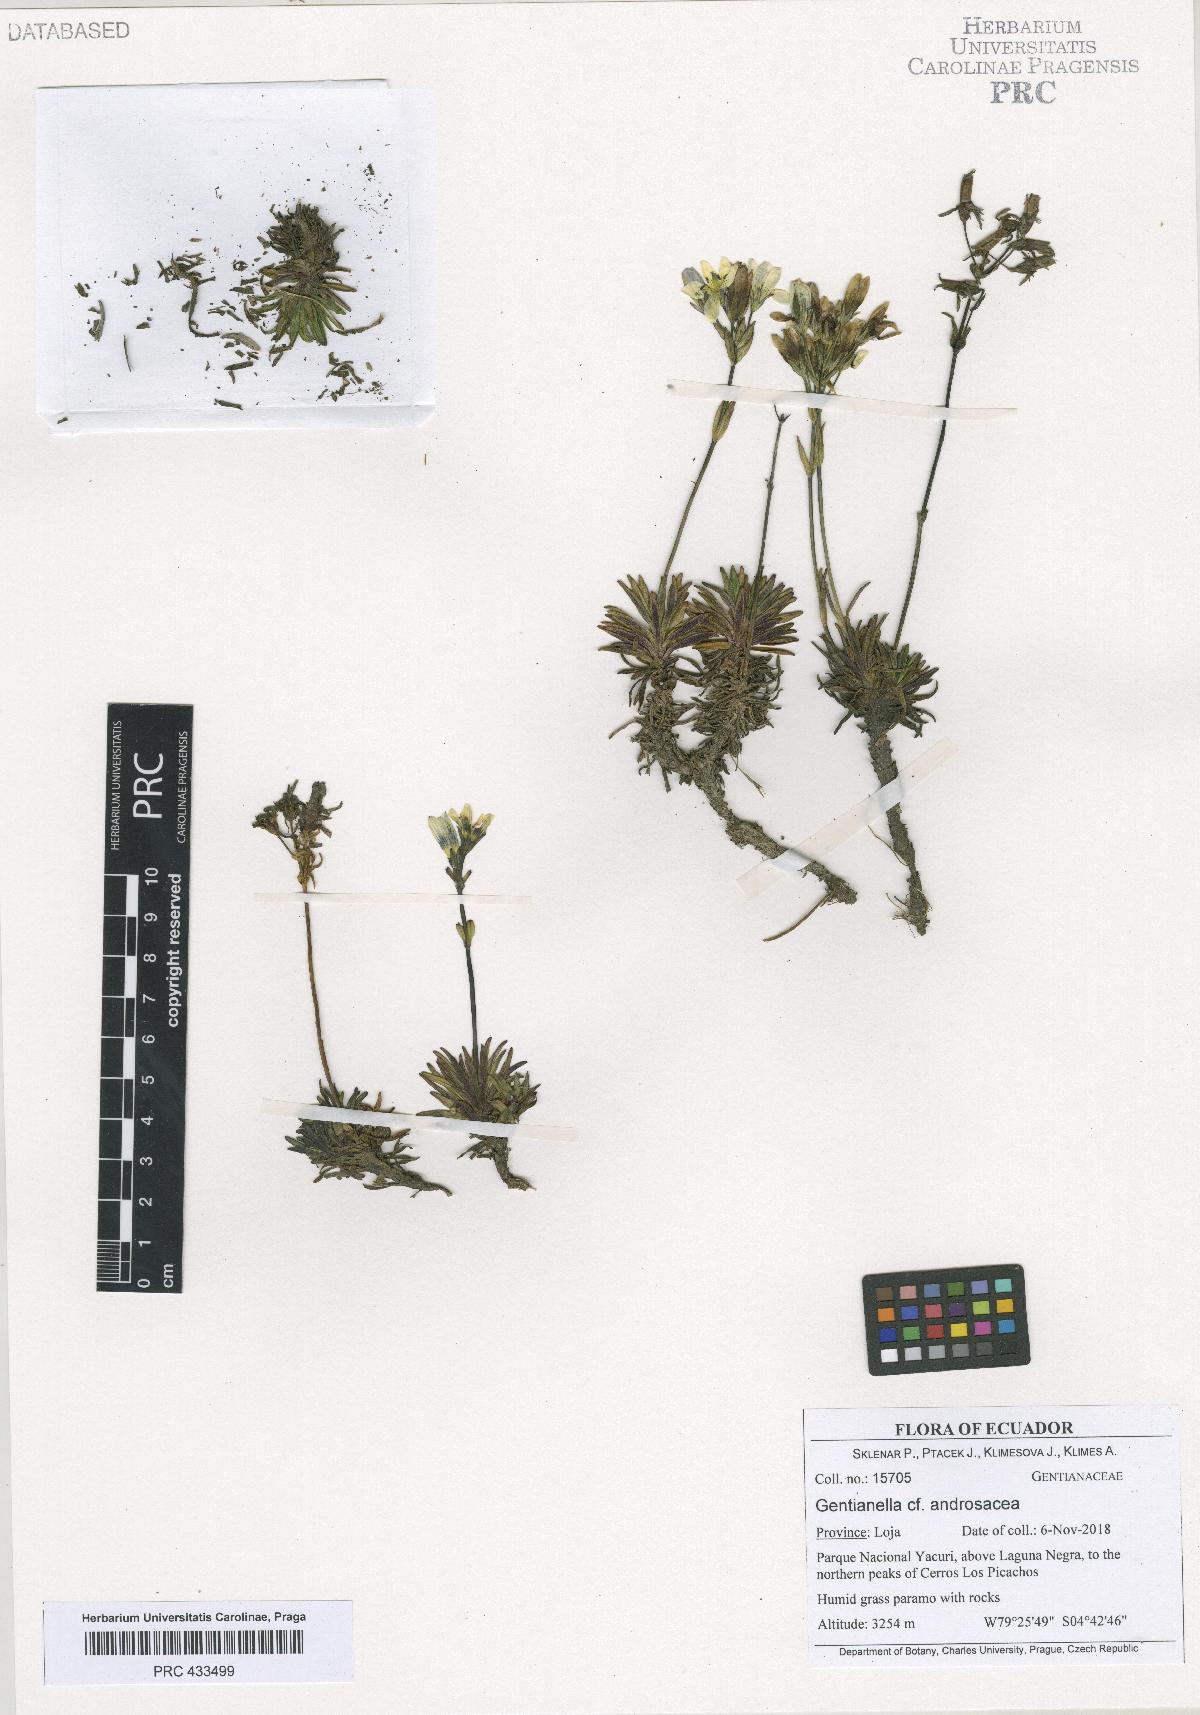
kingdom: Plantae
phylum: Tracheophyta
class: Magnoliopsida
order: Gentianales
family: Gentianaceae
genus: Gentianella
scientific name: Gentianella androsacea
